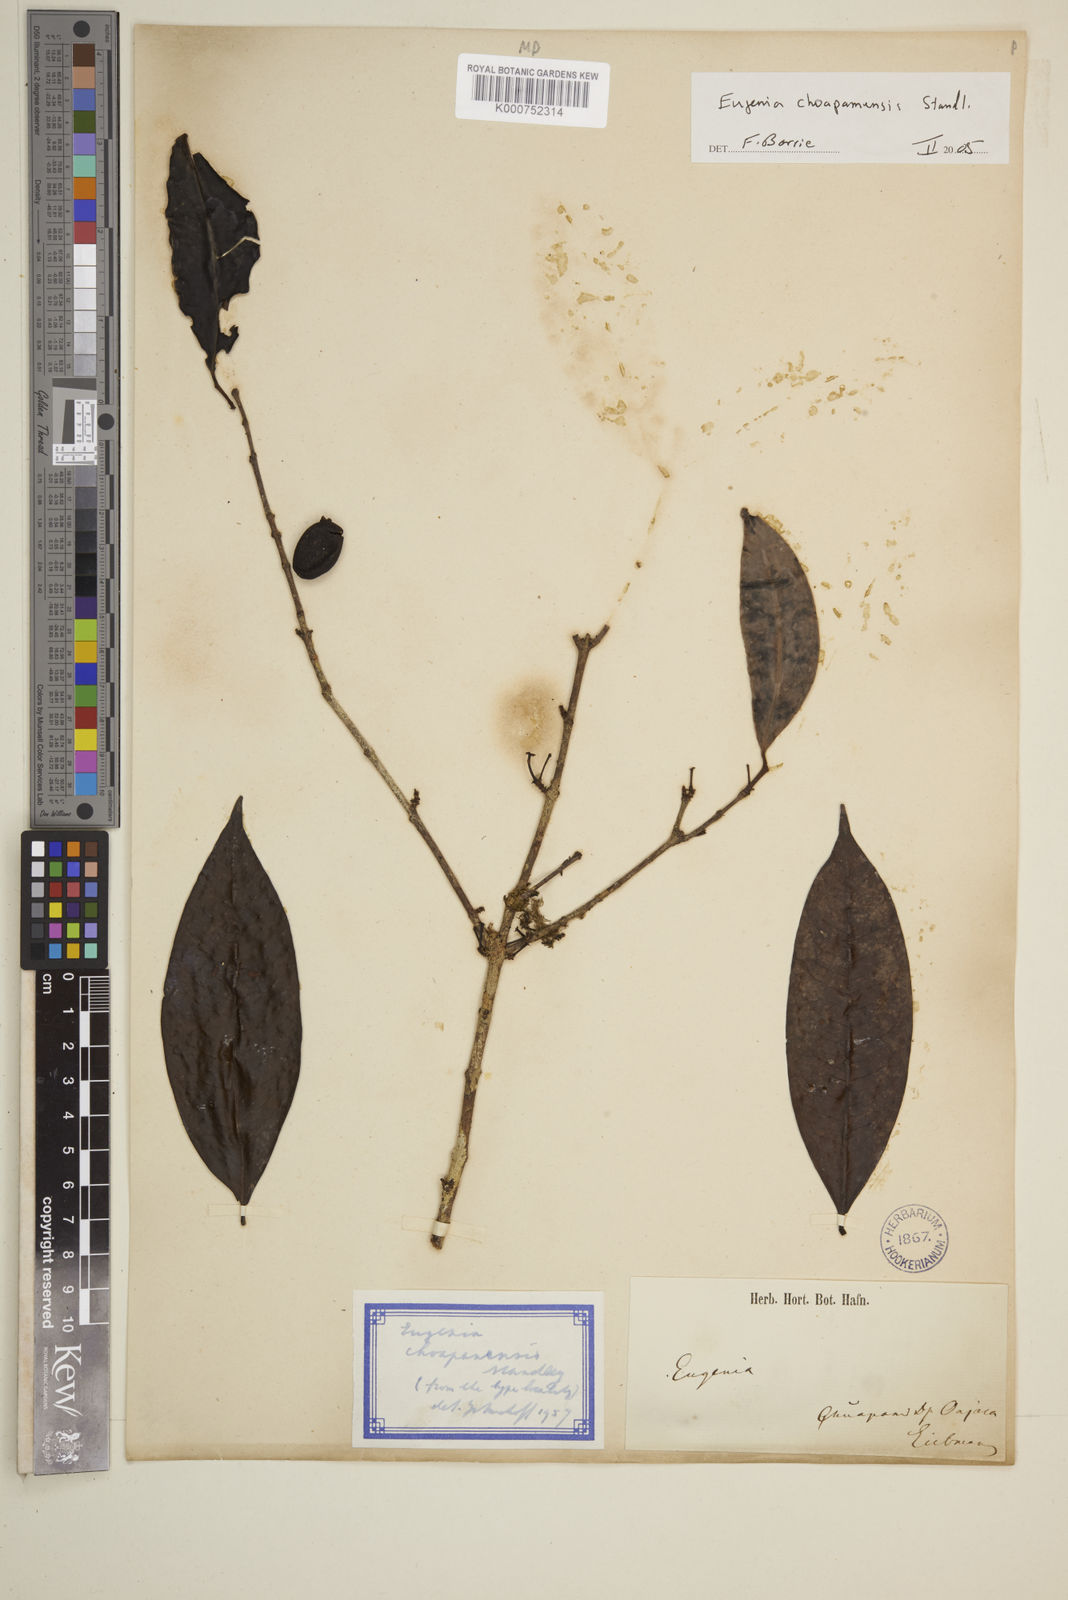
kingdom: Plantae
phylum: Tracheophyta
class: Magnoliopsida
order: Myrtales
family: Myrtaceae
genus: Eugenia
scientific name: Eugenia choapamensis
